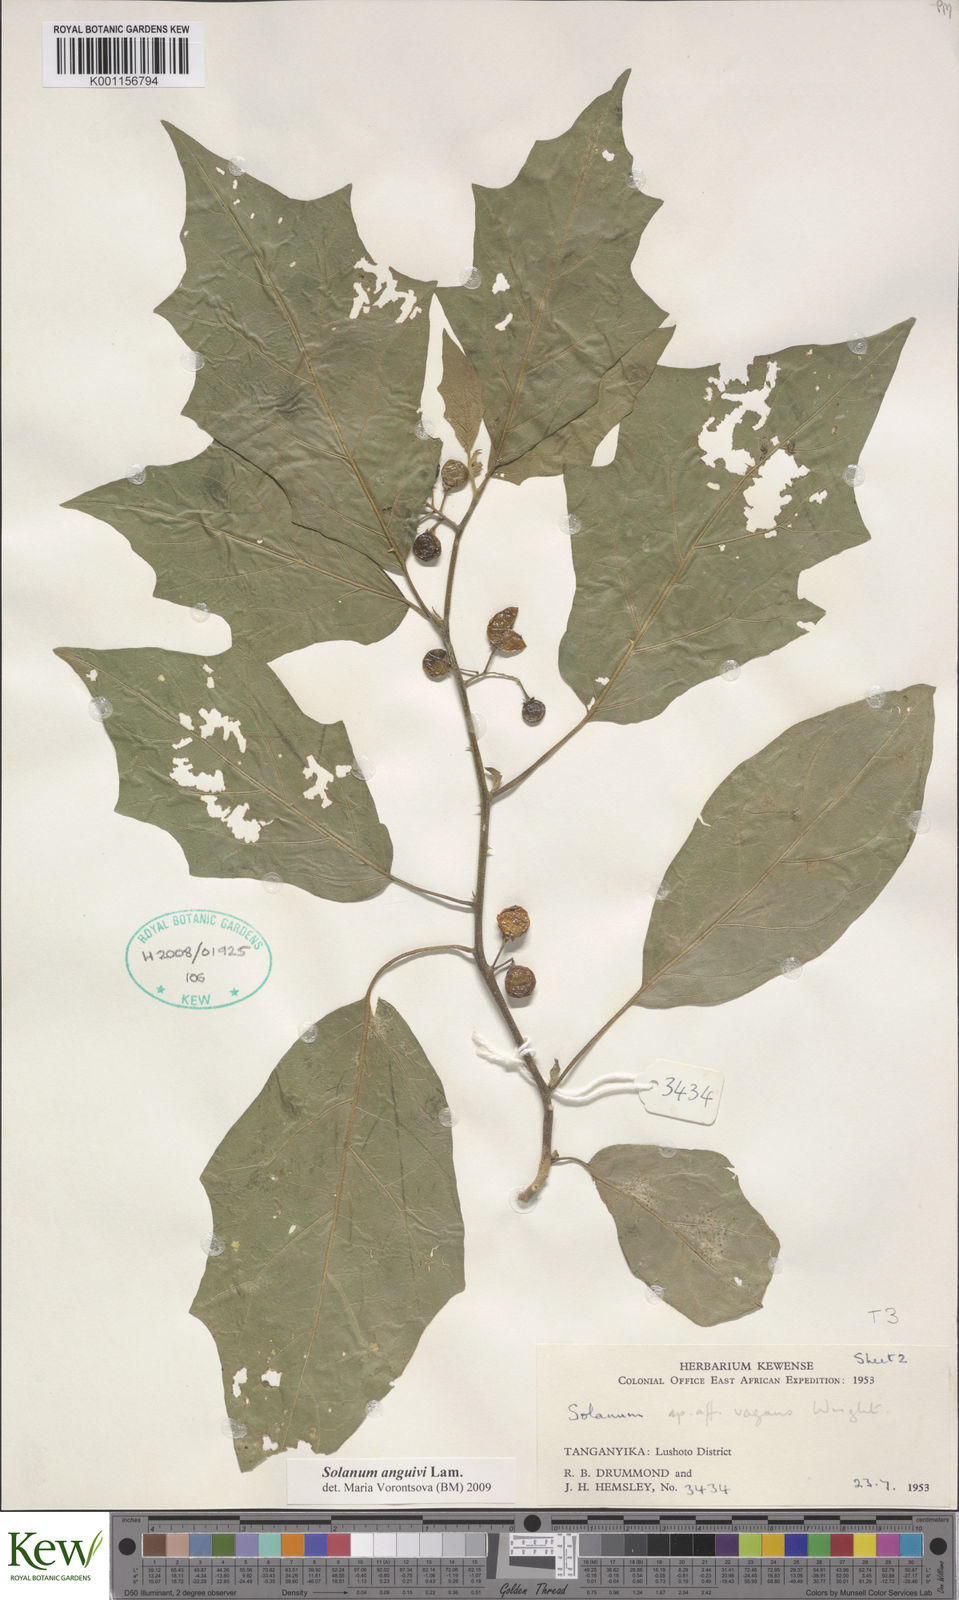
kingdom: Plantae
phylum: Tracheophyta
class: Magnoliopsida
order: Solanales
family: Solanaceae
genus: Solanum
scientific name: Solanum anguivi
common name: Forest bitterberry
